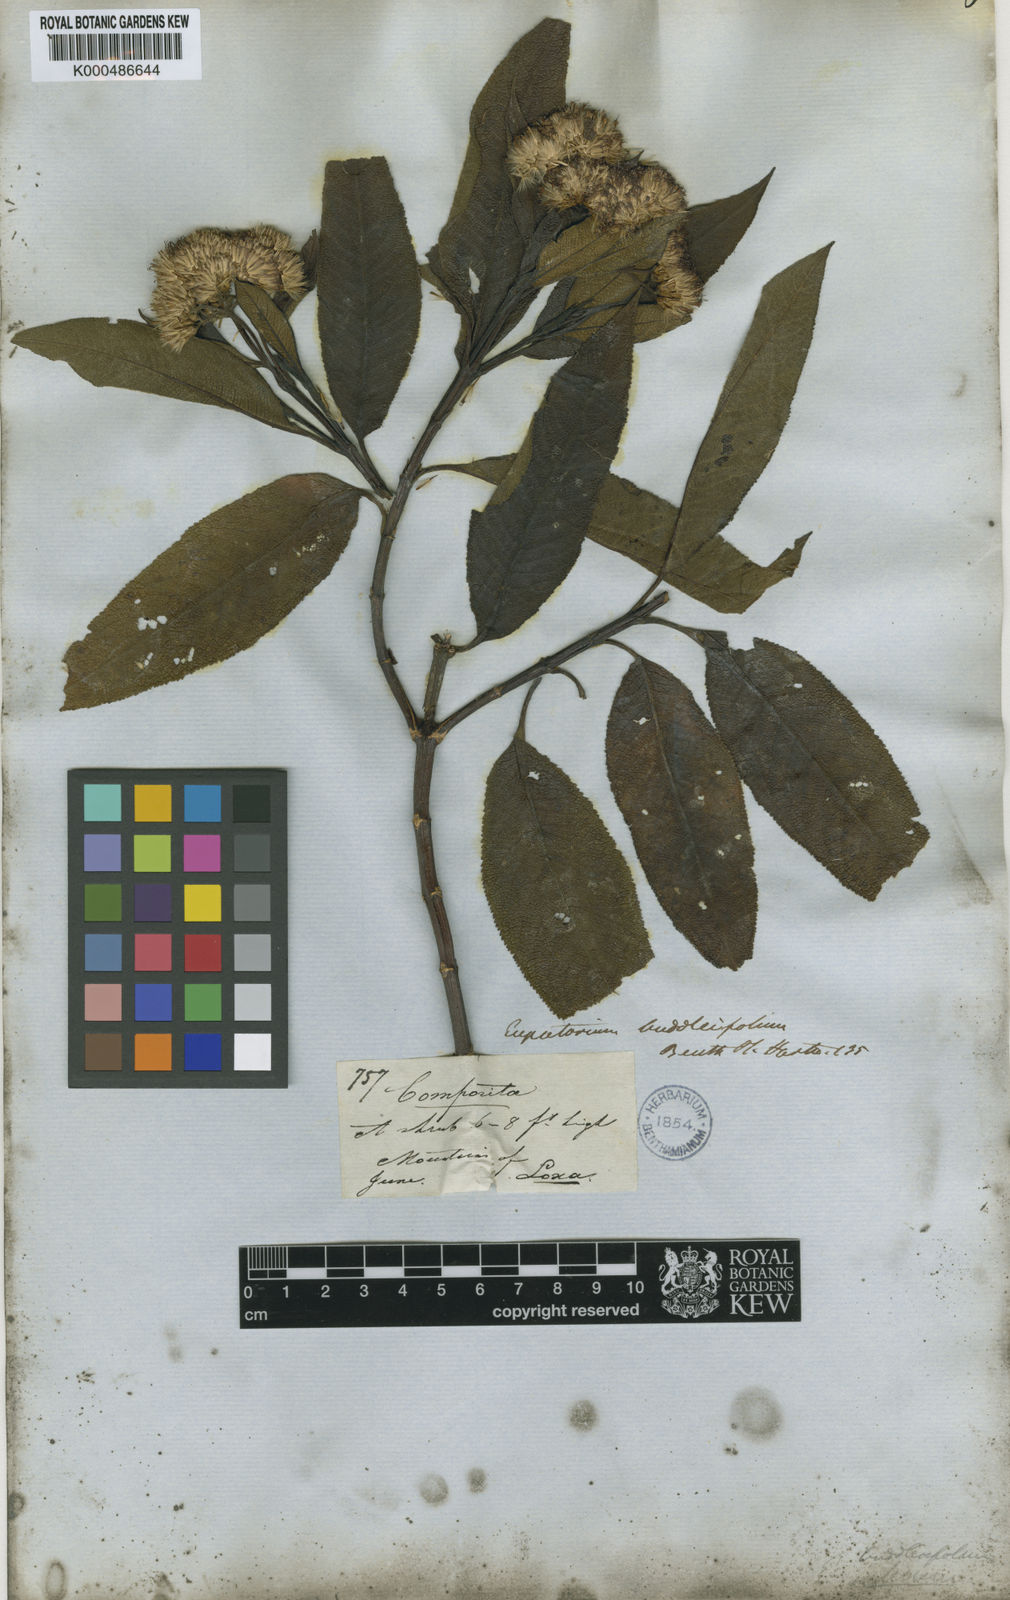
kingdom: Plantae
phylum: Tracheophyta
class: Magnoliopsida
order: Asterales
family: Asteraceae
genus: Aristeguietia
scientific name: Aristeguietia
